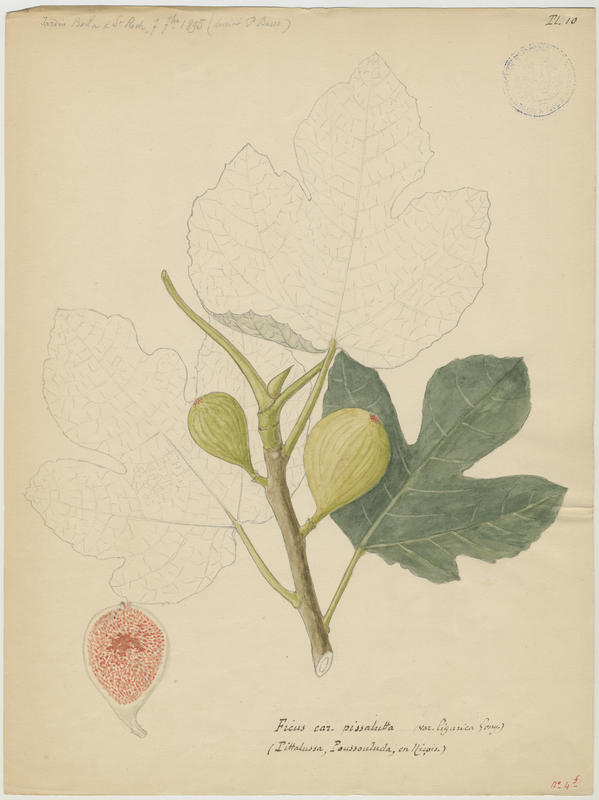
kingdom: Plantae
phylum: Tracheophyta
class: Magnoliopsida
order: Rosales
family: Moraceae
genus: Ficus
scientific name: Ficus carica
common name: Fig
